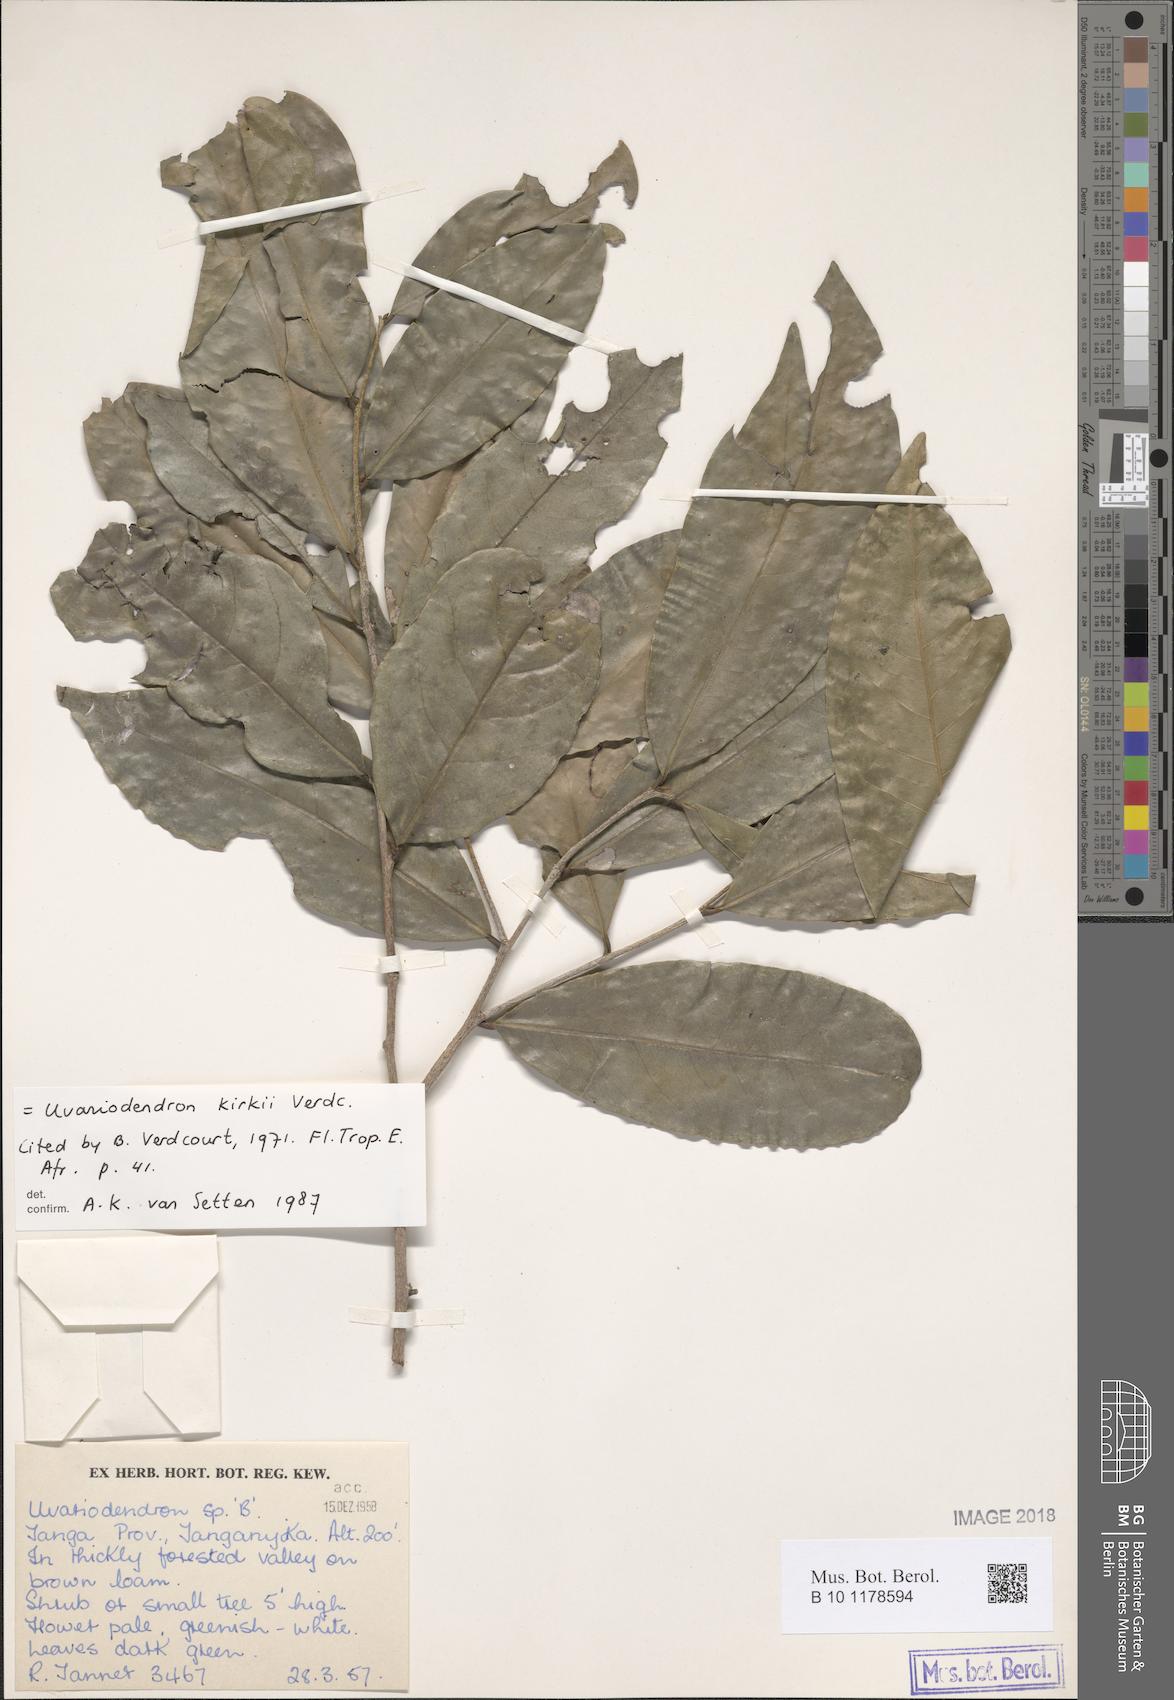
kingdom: Plantae
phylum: Tracheophyta
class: Magnoliopsida
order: Magnoliales
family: Annonaceae
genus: Uvariodendron
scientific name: Uvariodendron kirkii
